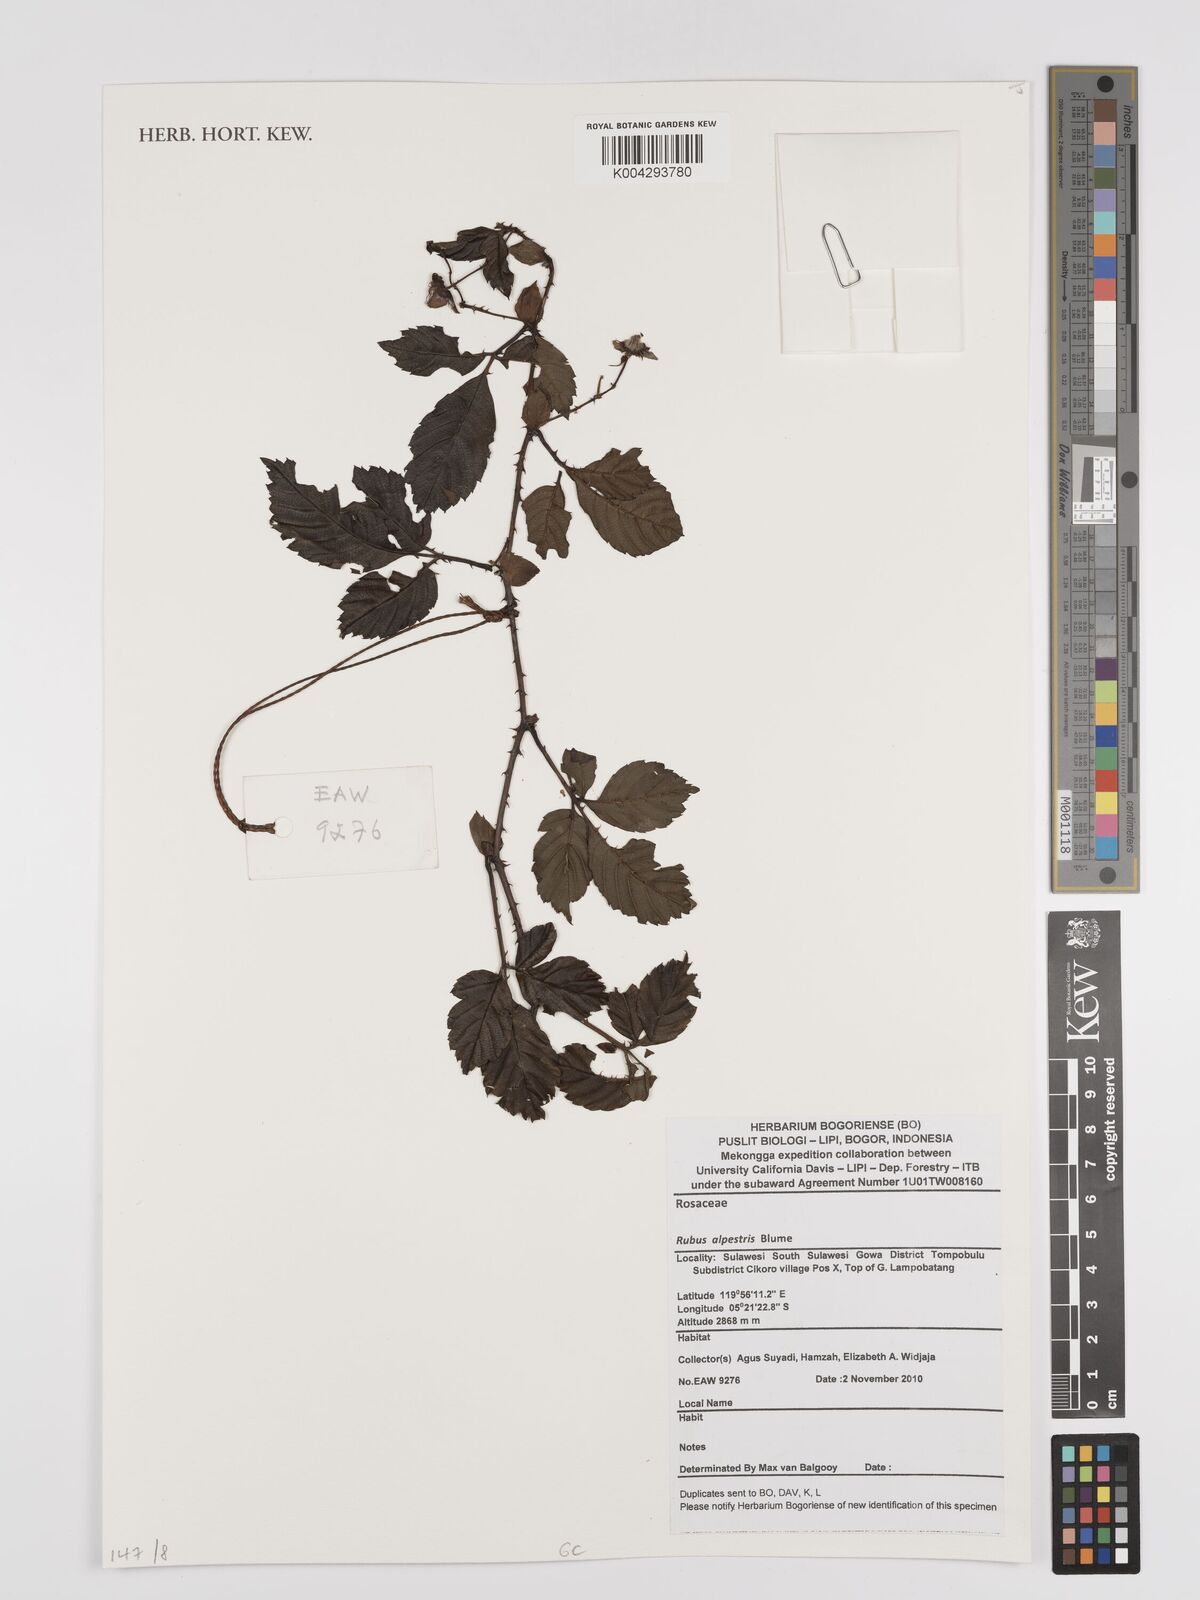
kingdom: Plantae
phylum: Tracheophyta
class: Magnoliopsida
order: Rosales
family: Rosaceae
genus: Rubus
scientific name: Rubus alpestris
